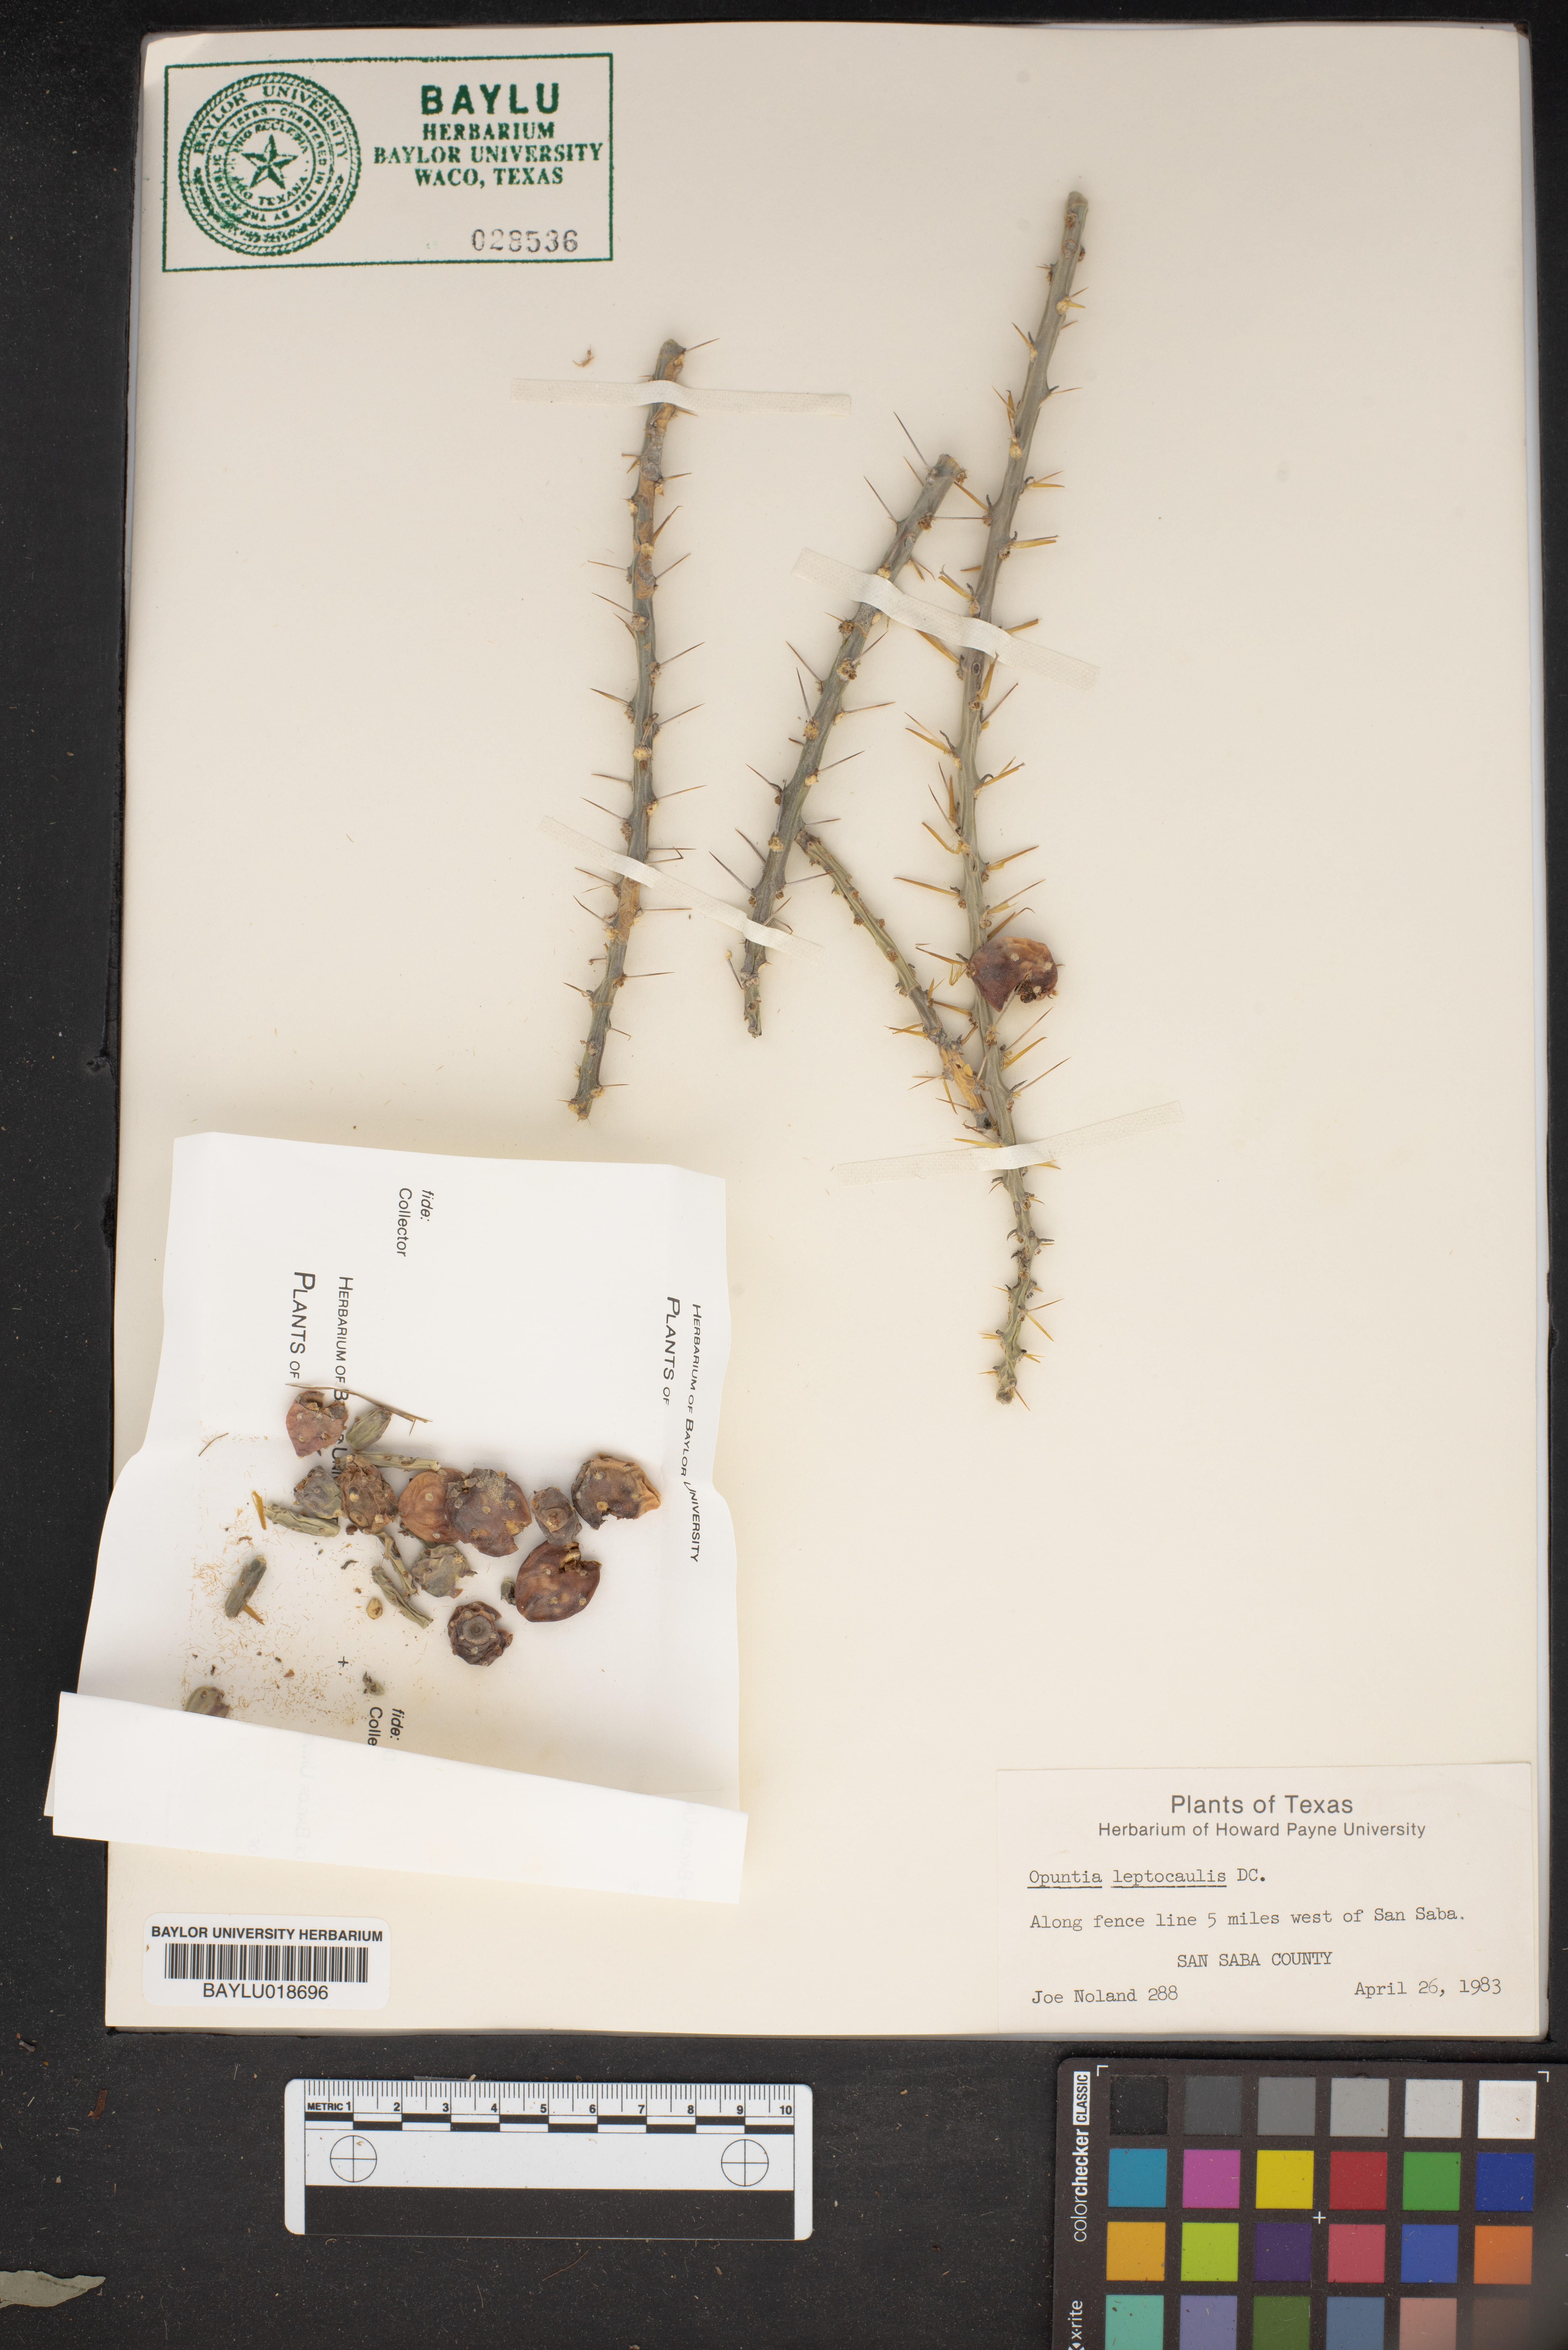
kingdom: Plantae
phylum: Tracheophyta
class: Magnoliopsida
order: Caryophyllales
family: Cactaceae
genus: Cylindropuntia
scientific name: Cylindropuntia leptocaulis
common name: Christmas cactus
